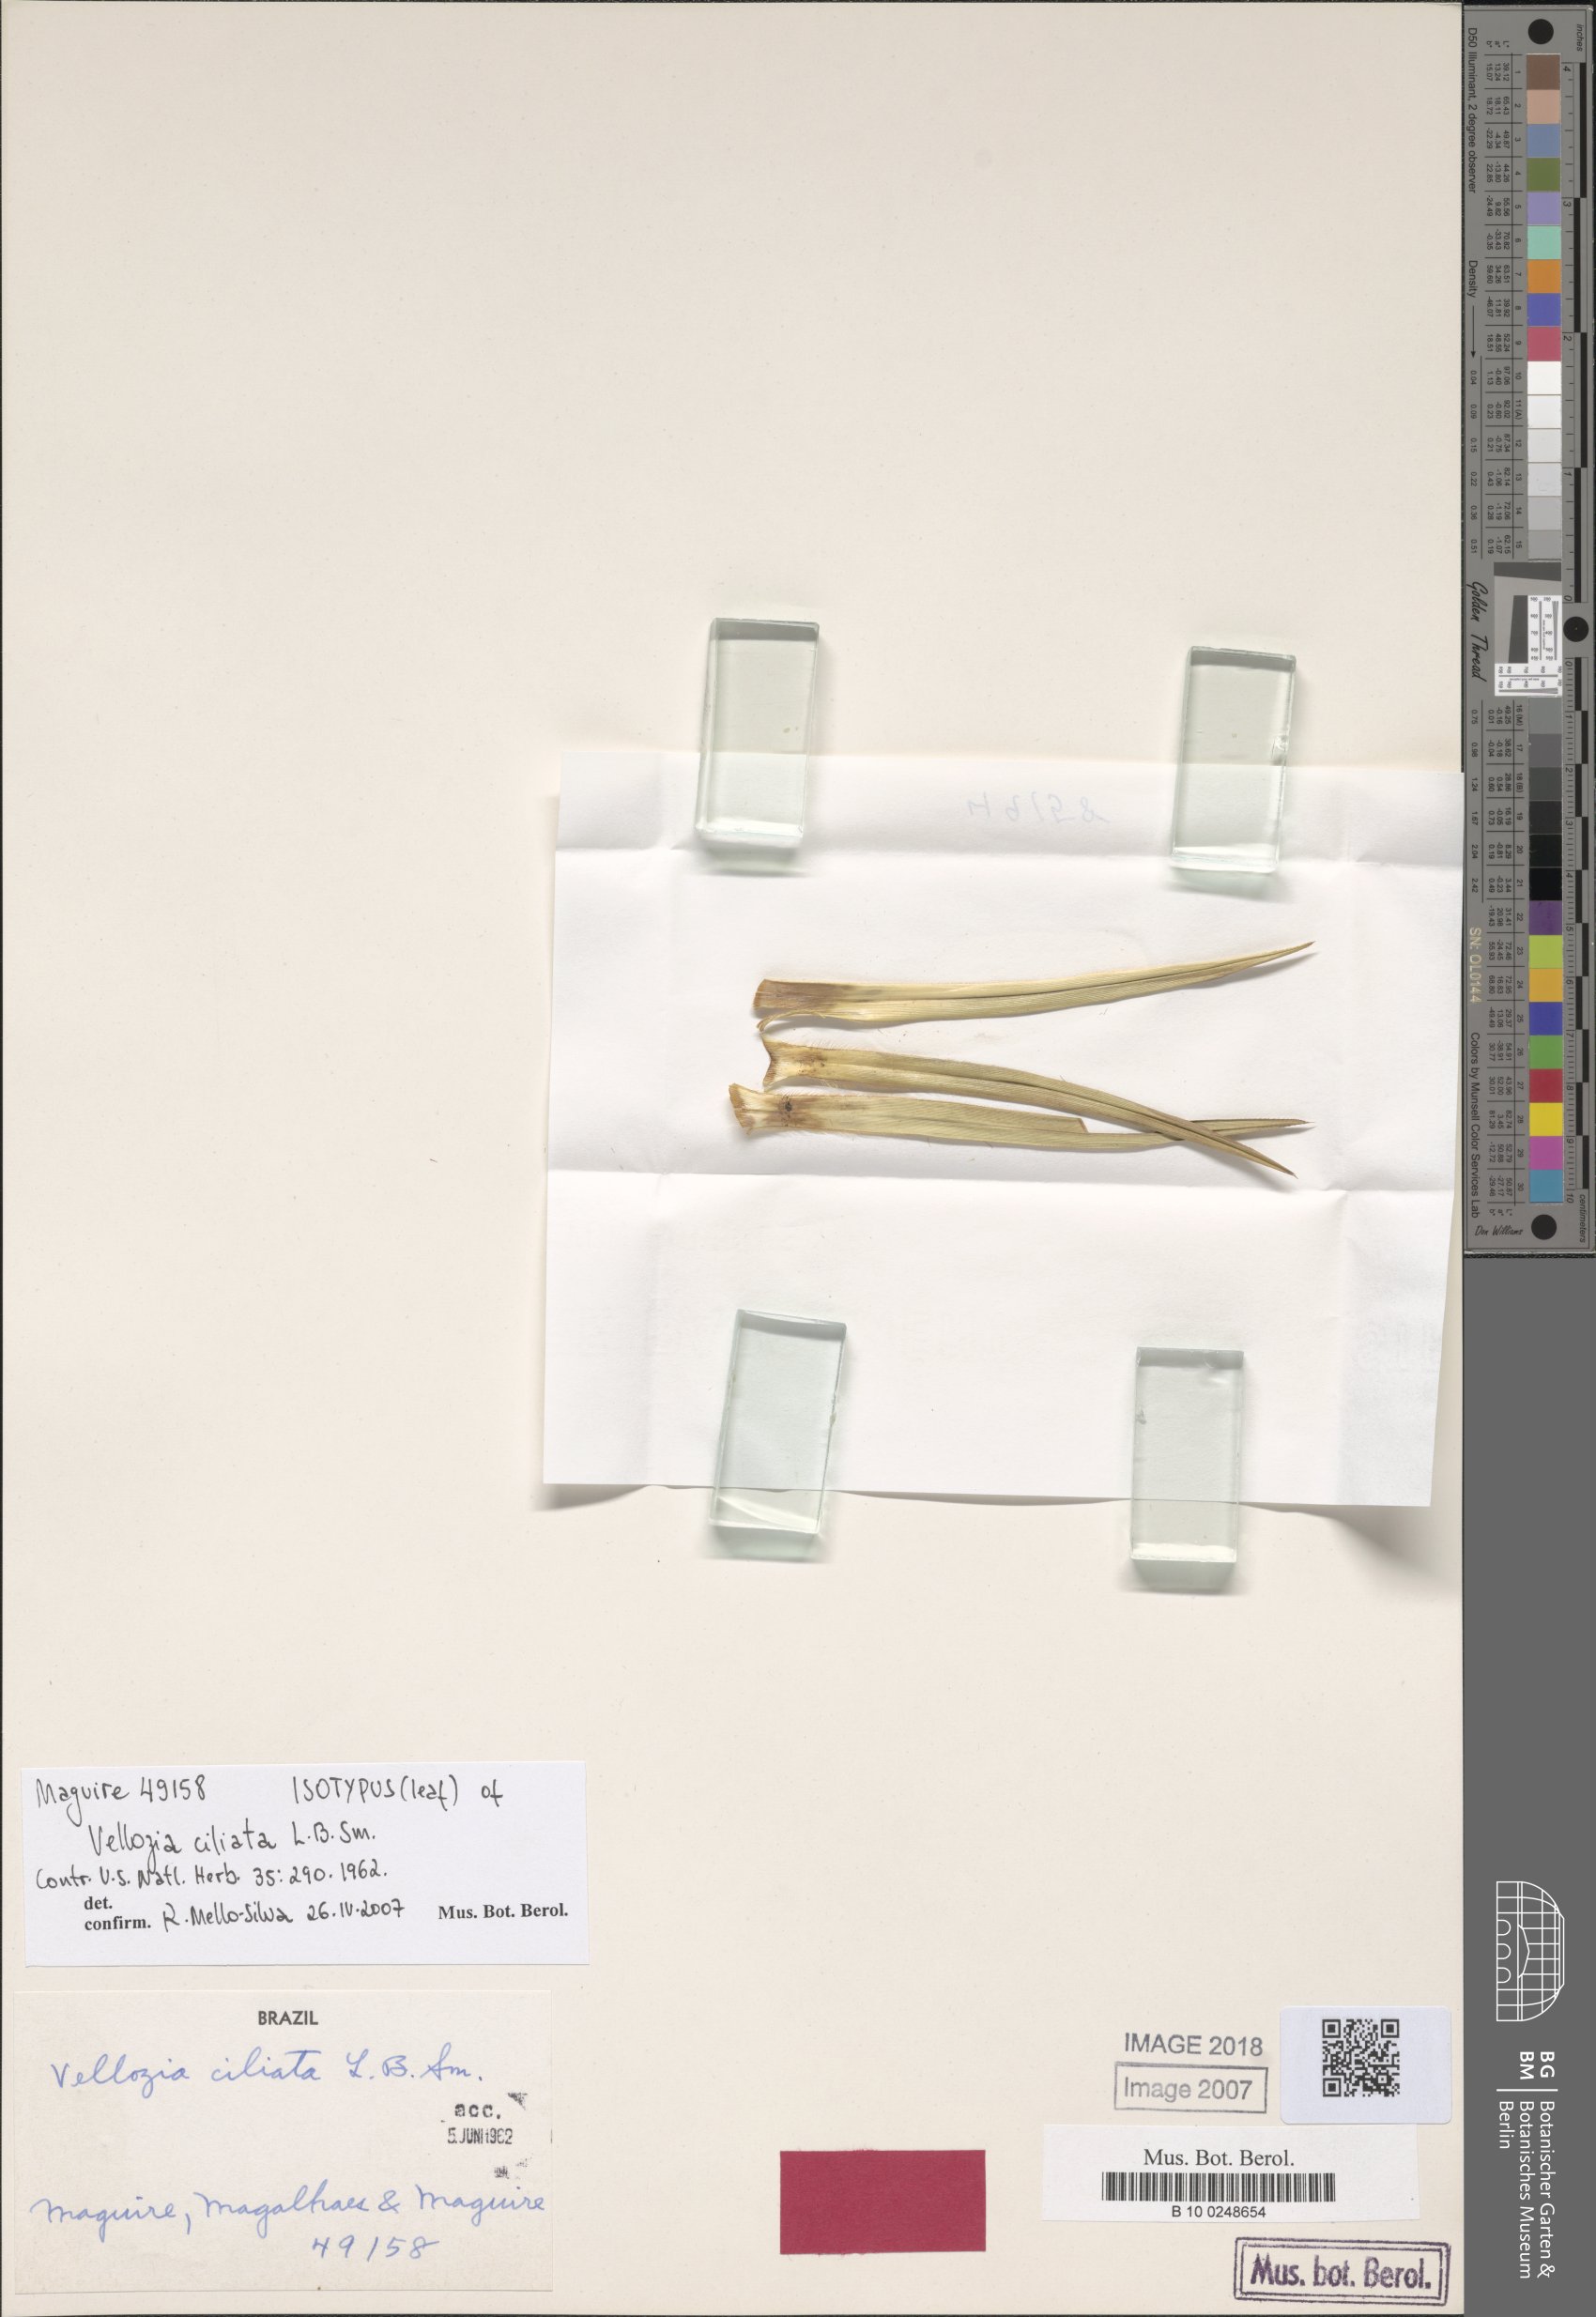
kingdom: Plantae
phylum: Tracheophyta
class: Liliopsida
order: Pandanales
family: Velloziaceae
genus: Vellozia
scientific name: Vellozia ciliata
